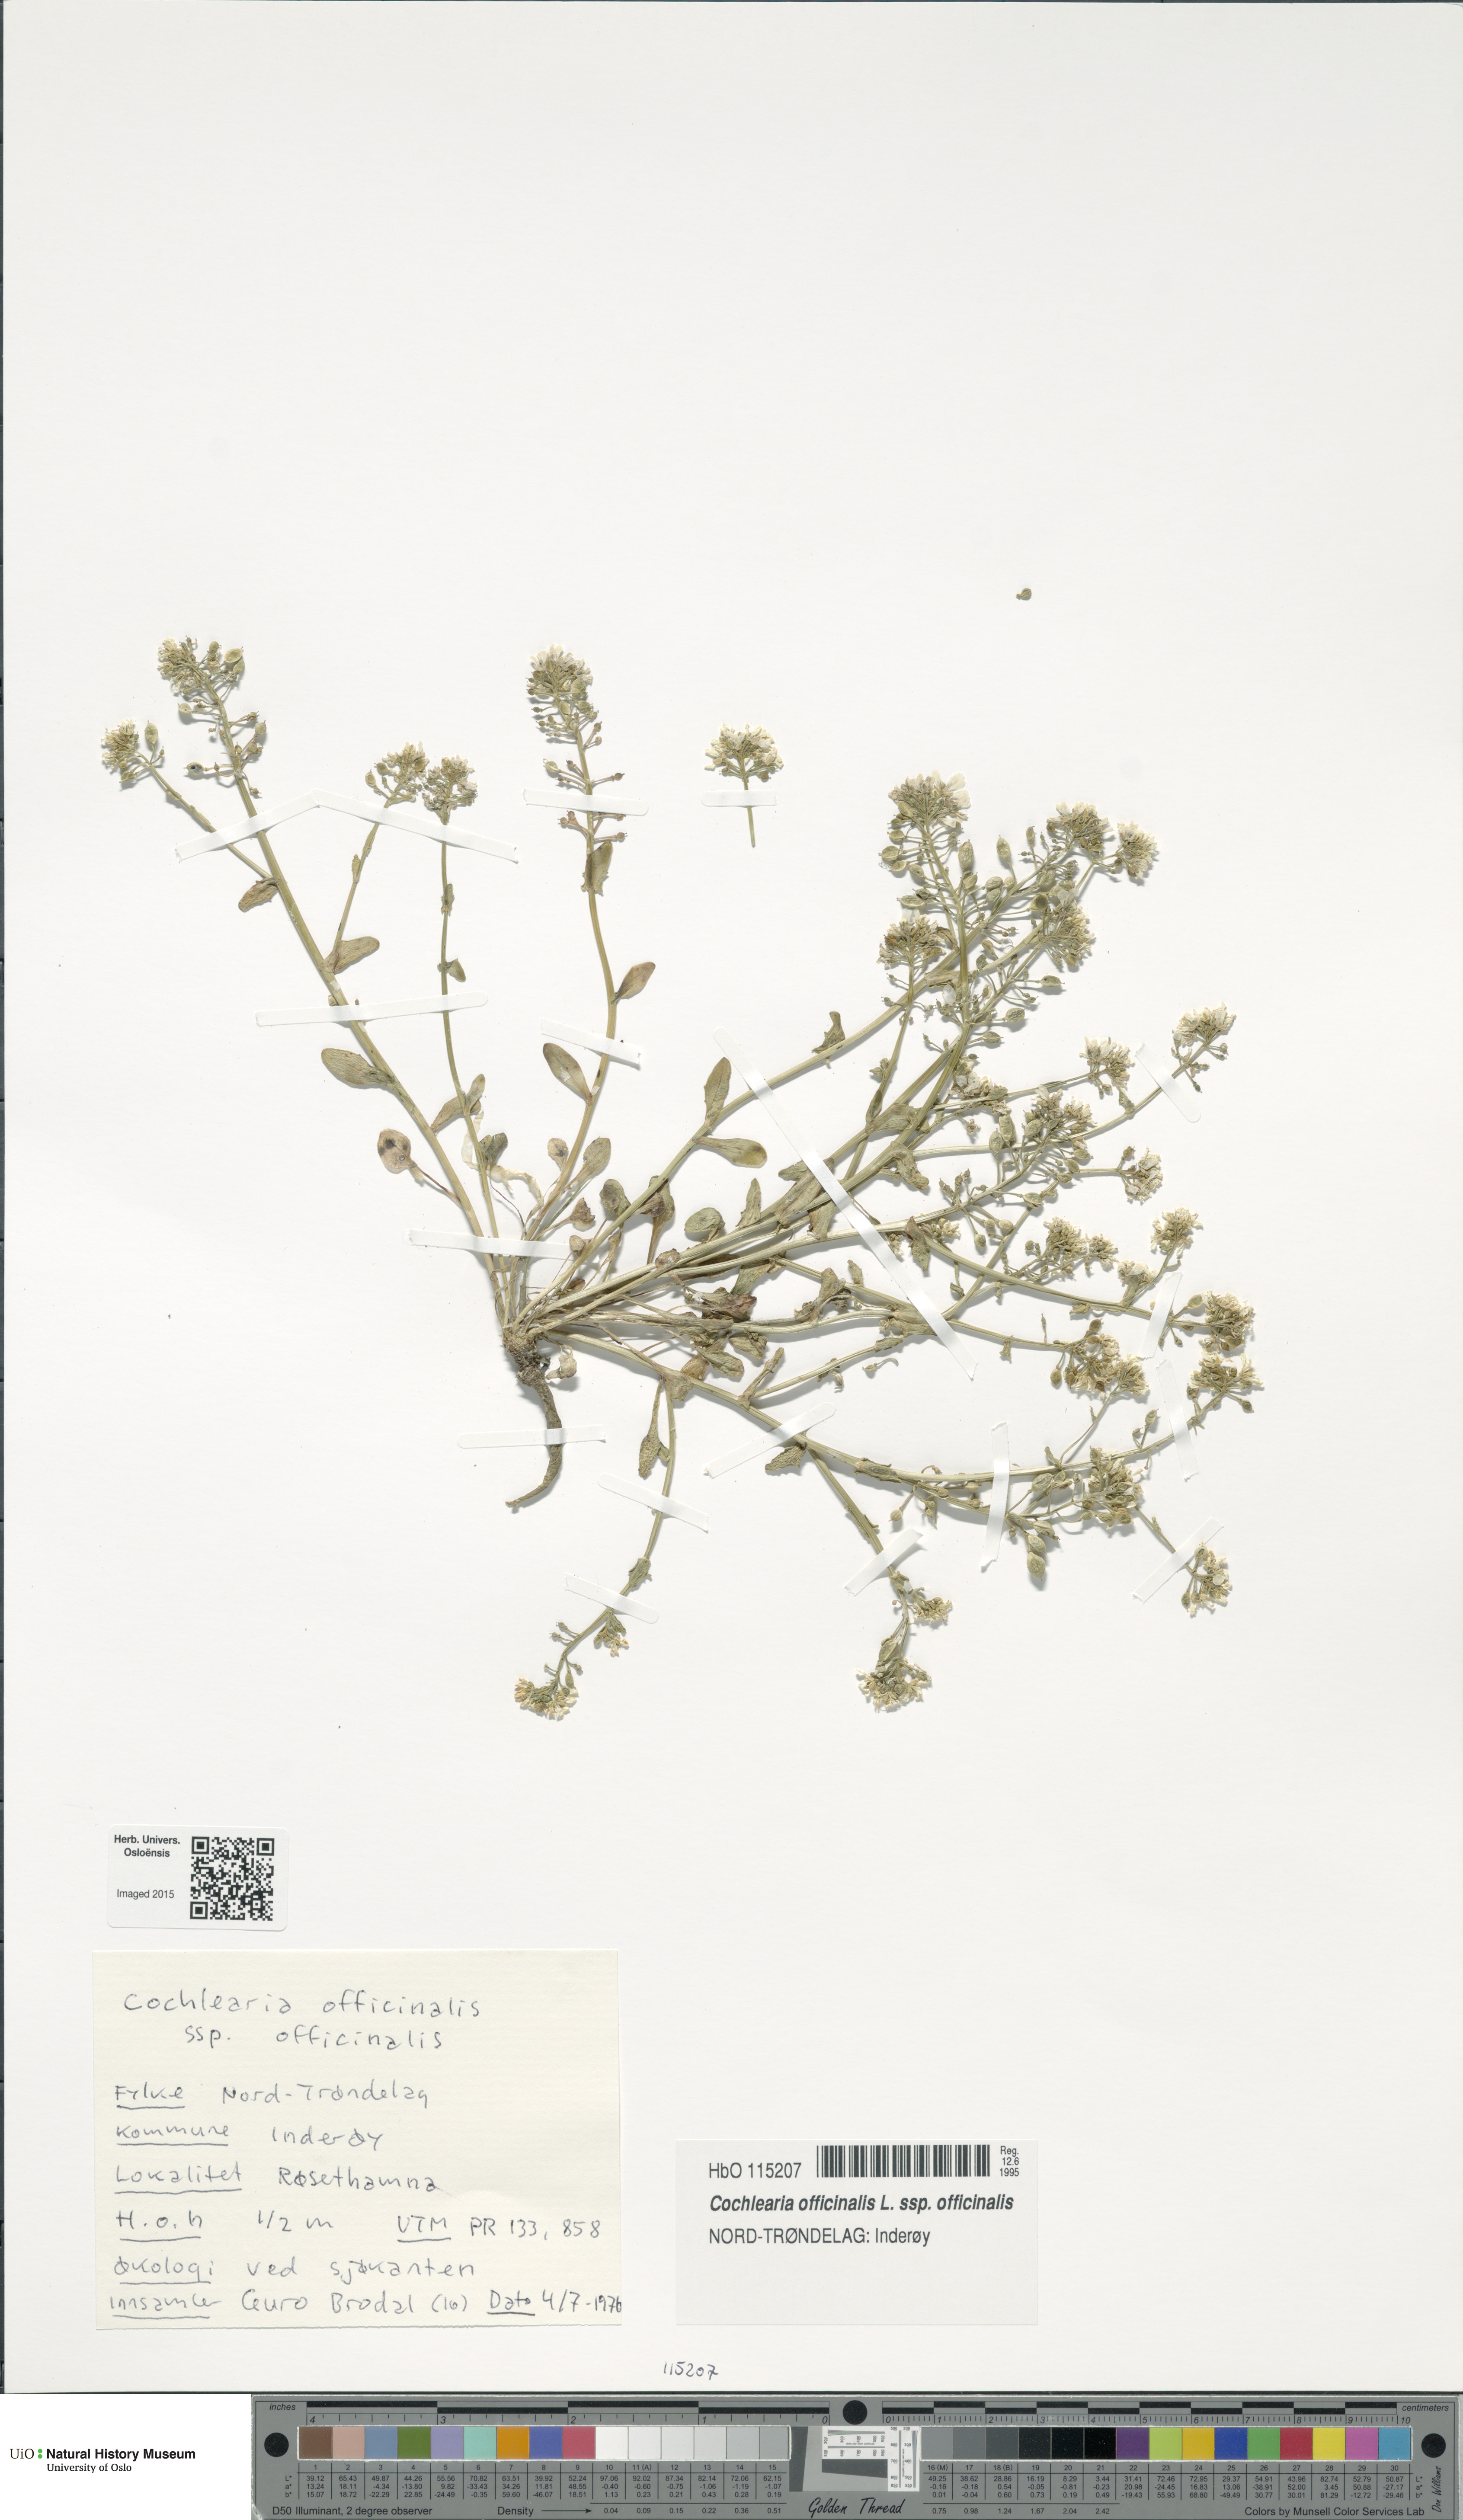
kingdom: Plantae
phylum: Tracheophyta
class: Magnoliopsida
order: Brassicales
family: Brassicaceae
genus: Cochlearia
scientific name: Cochlearia officinalis
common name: Scurvy-grass
